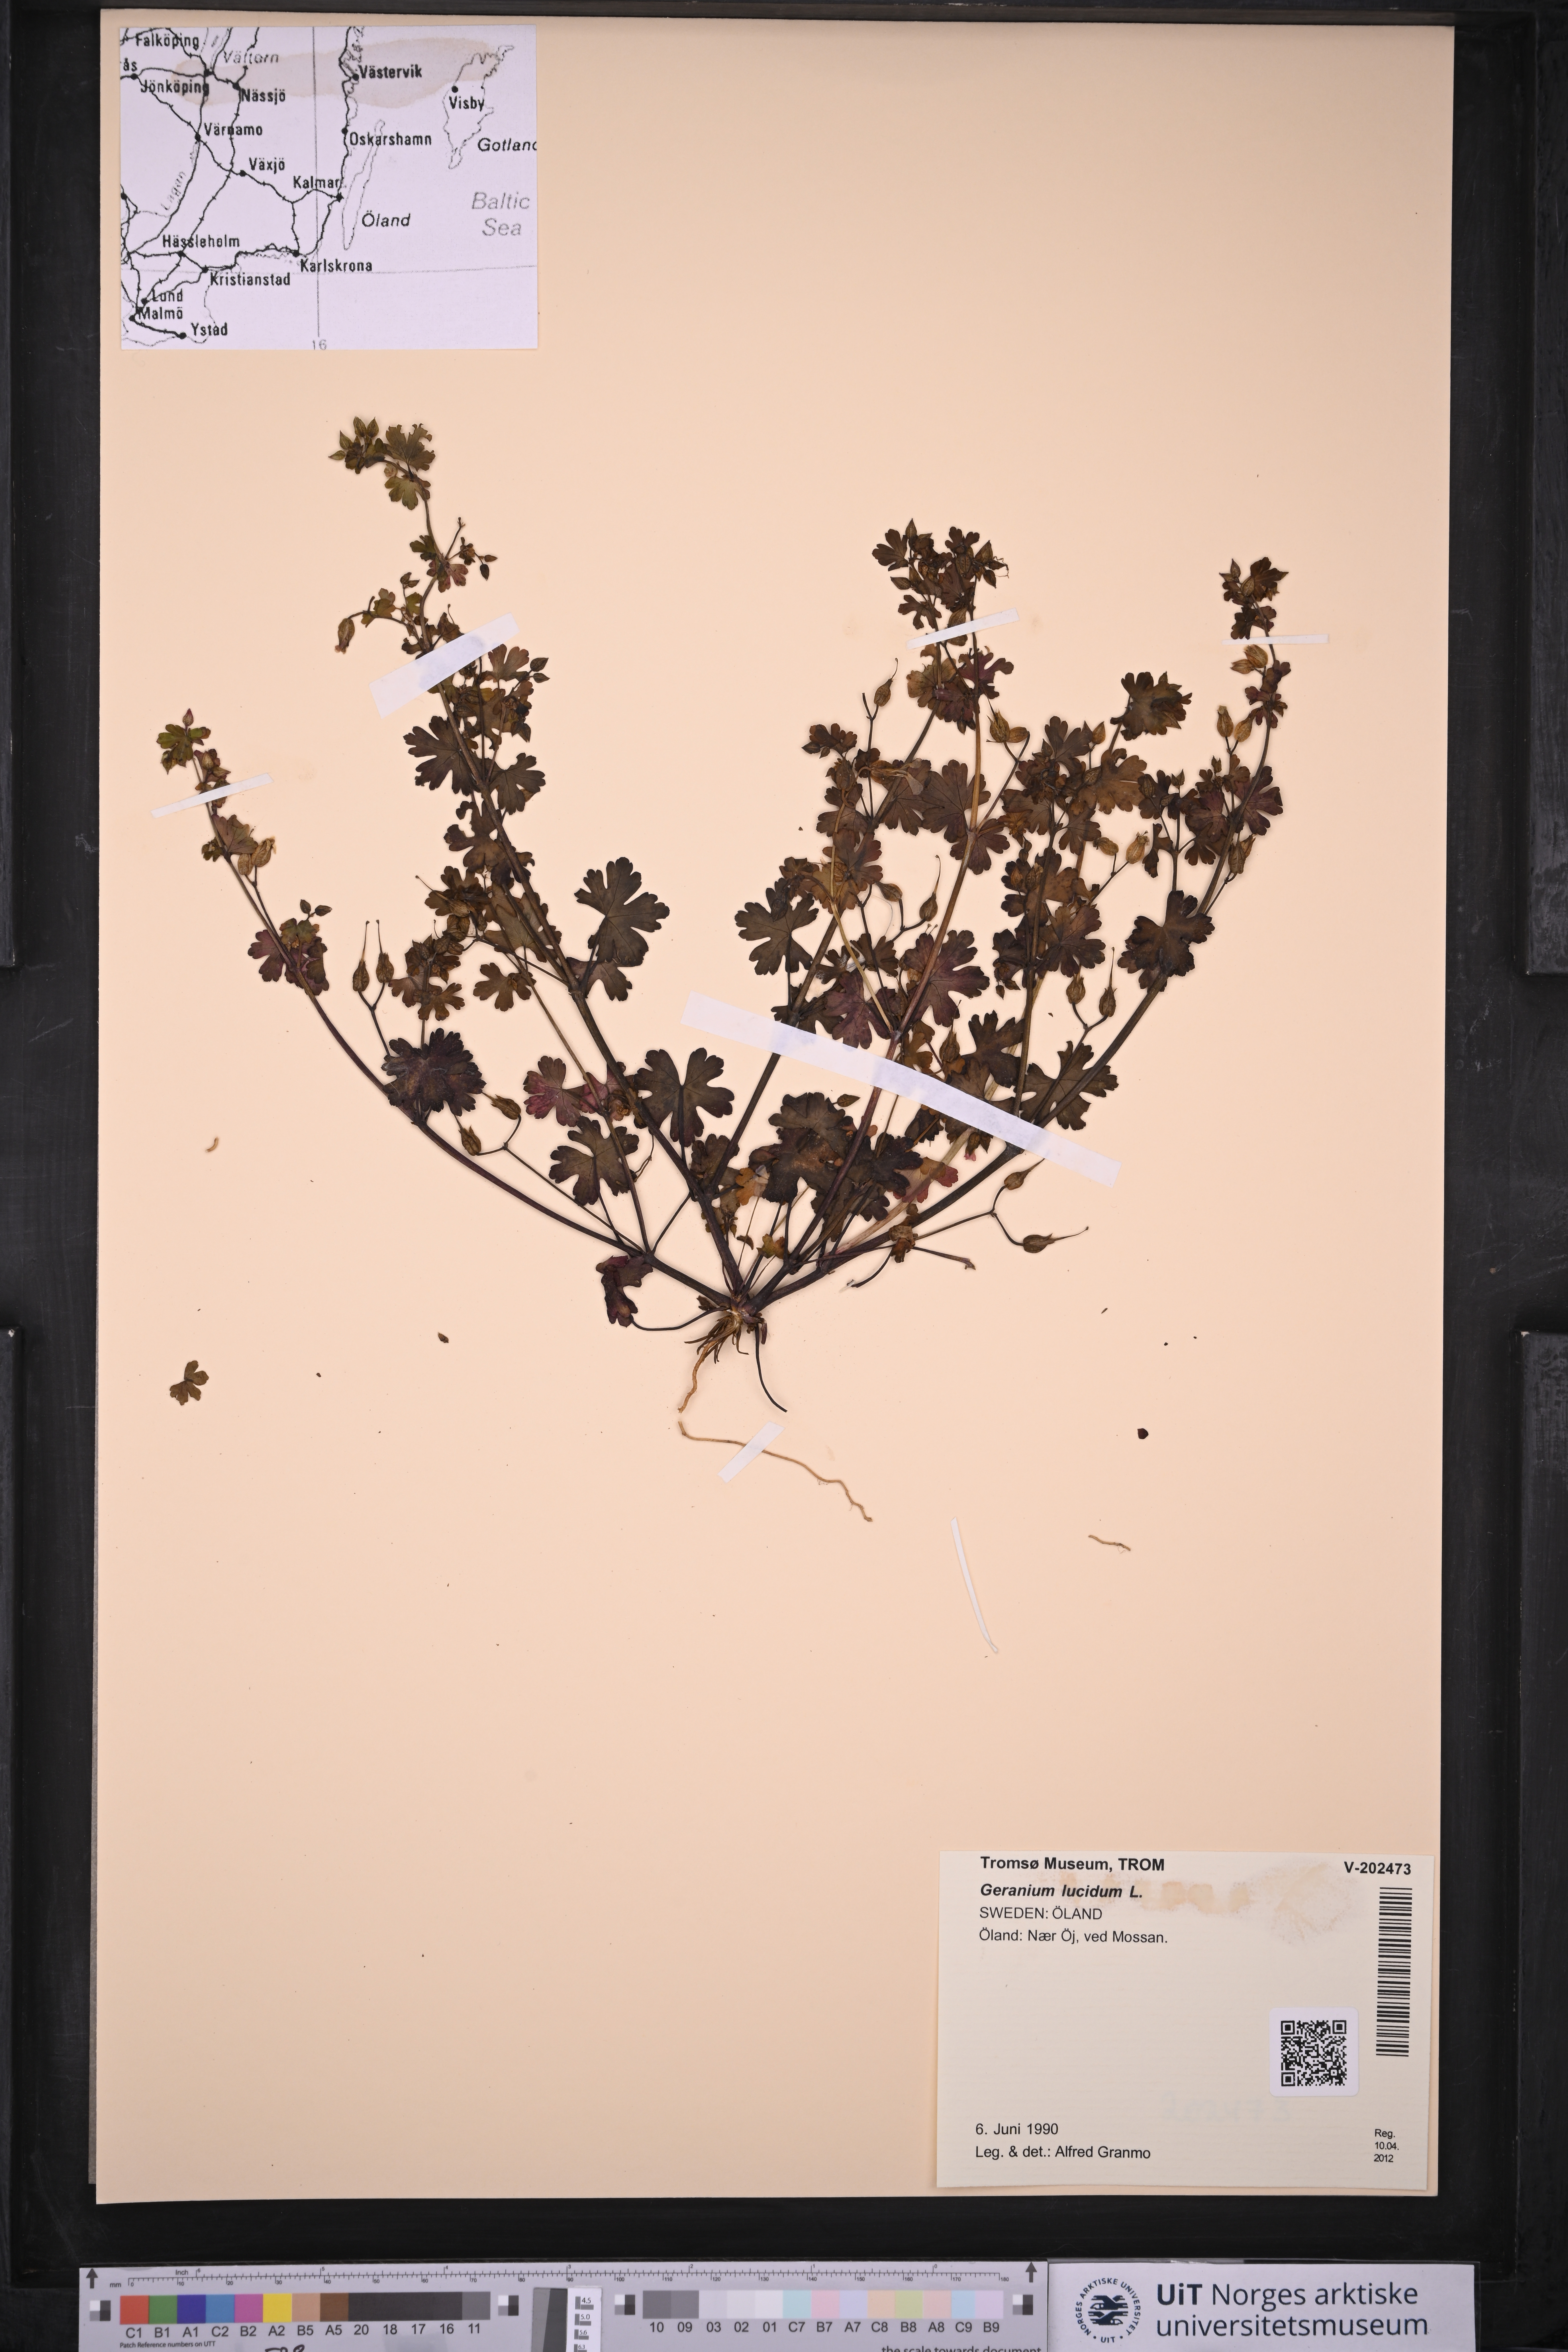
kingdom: Plantae
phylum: Tracheophyta
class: Magnoliopsida
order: Geraniales
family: Geraniaceae
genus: Geranium
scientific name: Geranium lucidum
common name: Shining crane's-bill
